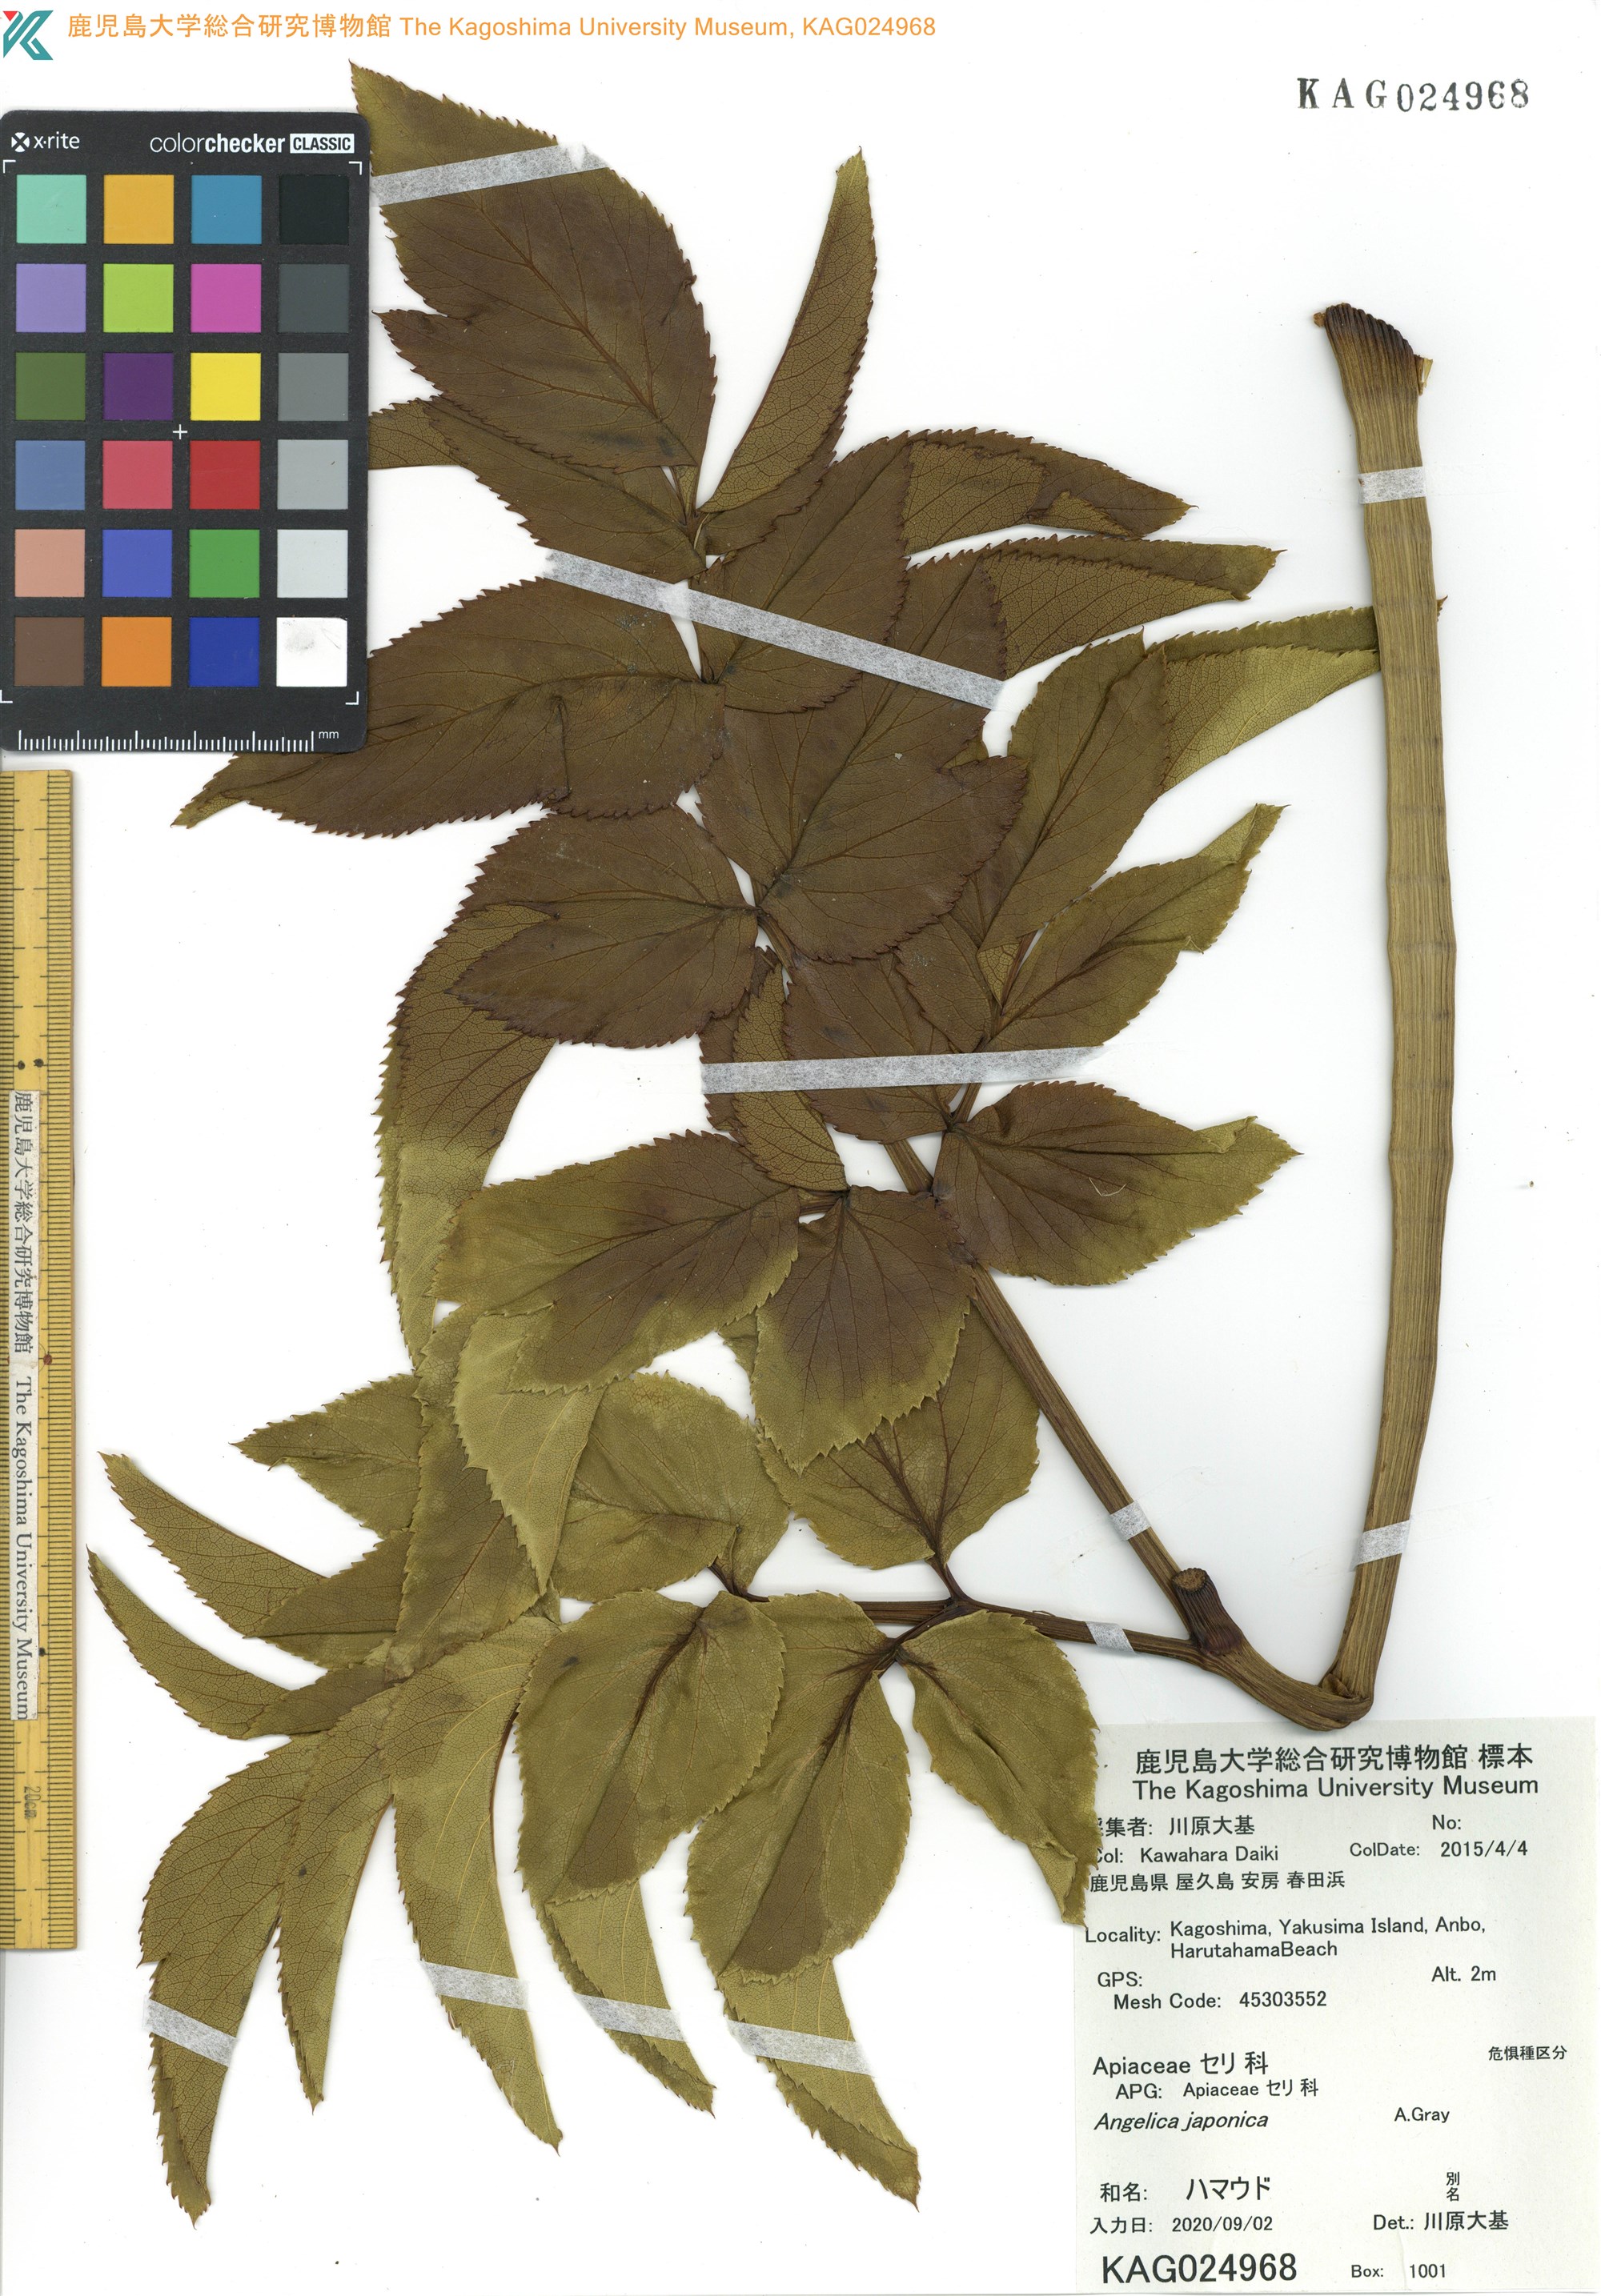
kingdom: Plantae
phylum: Tracheophyta
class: Magnoliopsida
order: Apiales
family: Apiaceae
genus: Angelica
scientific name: Angelica japonica
